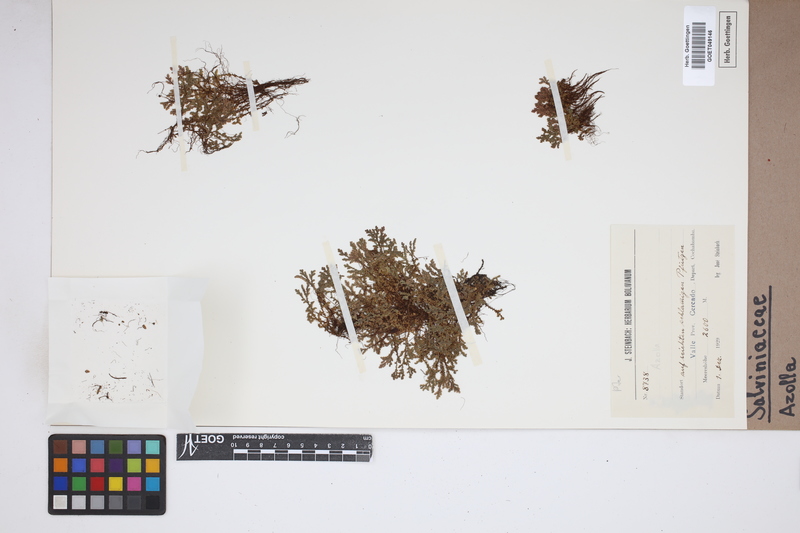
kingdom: Plantae
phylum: Tracheophyta
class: Polypodiopsida
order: Salviniales
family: Salviniaceae
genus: Azolla
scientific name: Azolla
